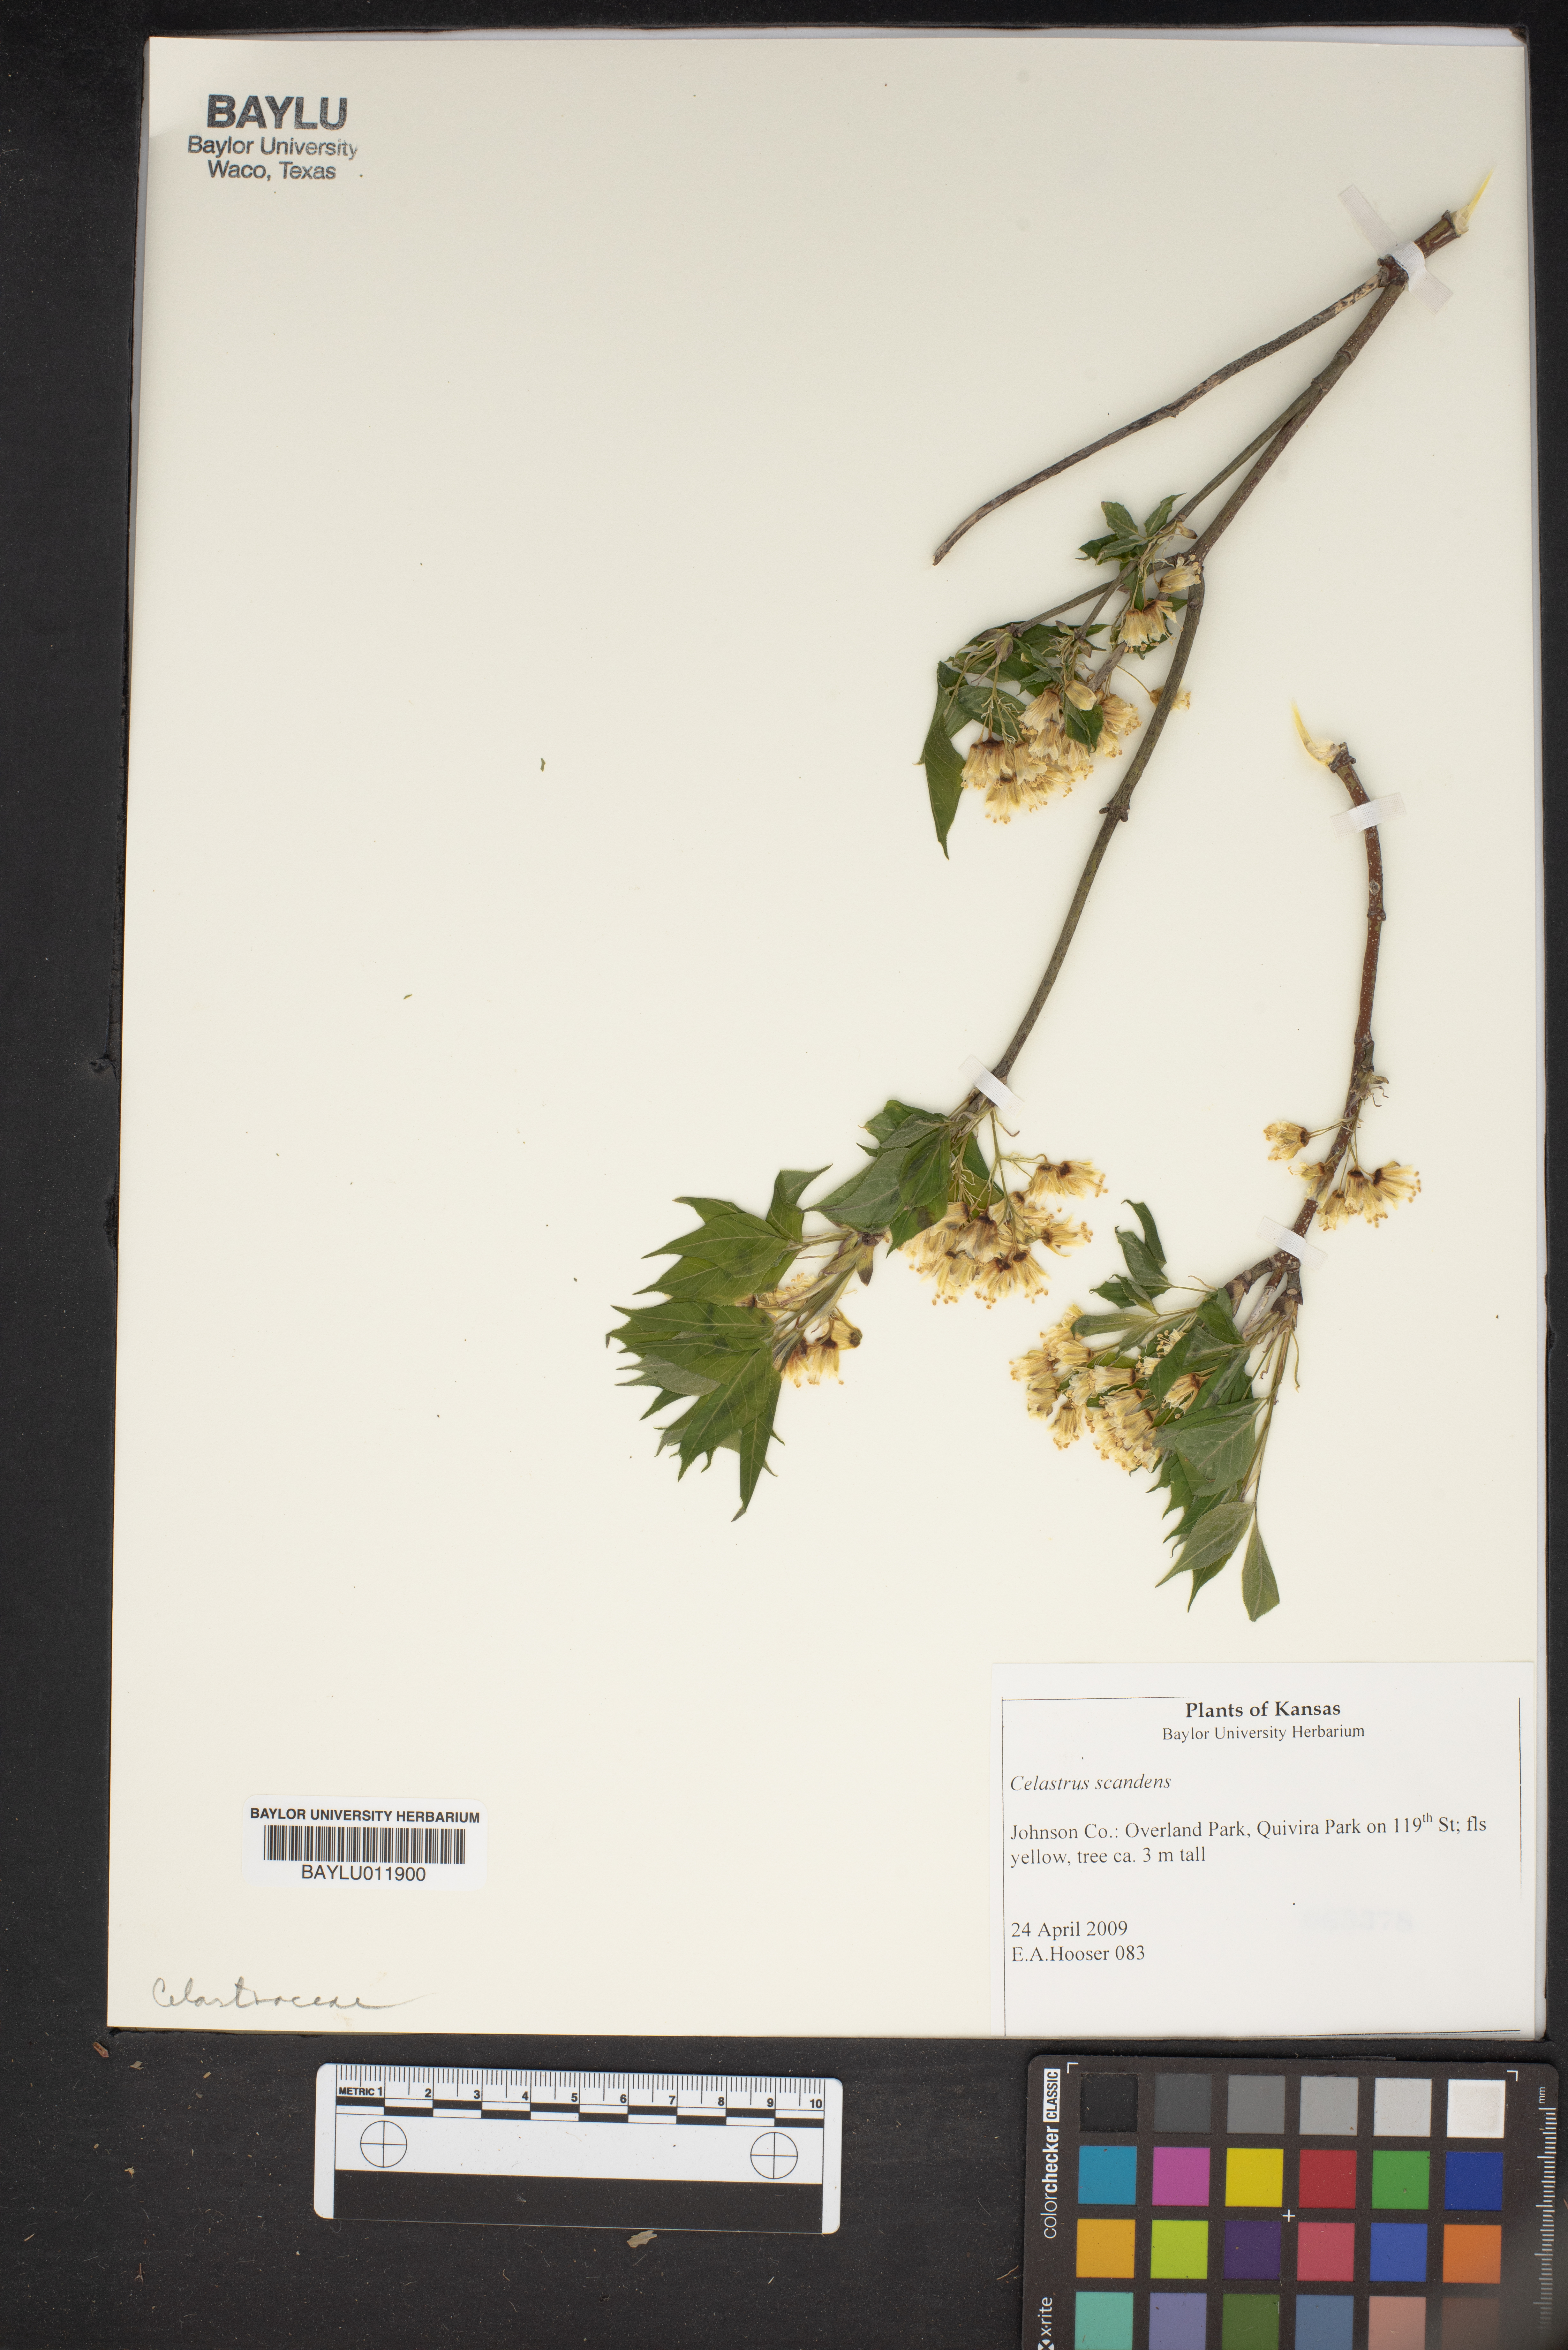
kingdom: Plantae
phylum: Tracheophyta
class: Magnoliopsida
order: Celastrales
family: Celastraceae
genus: Celastrus
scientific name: Celastrus scandens
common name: American bittersweet
